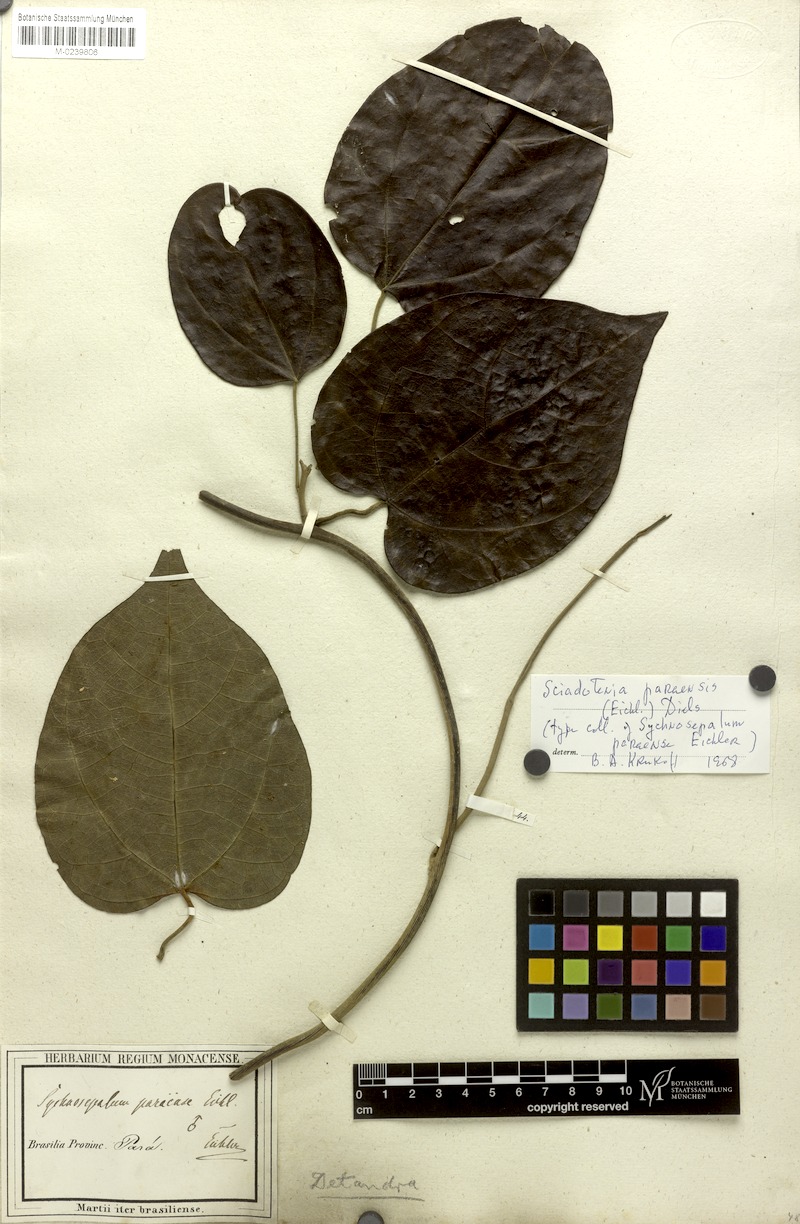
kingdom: Plantae
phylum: Tracheophyta
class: Magnoliopsida
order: Ranunculales
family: Menispermaceae
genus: Sciadotenia
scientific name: Sciadotenia paraensis
